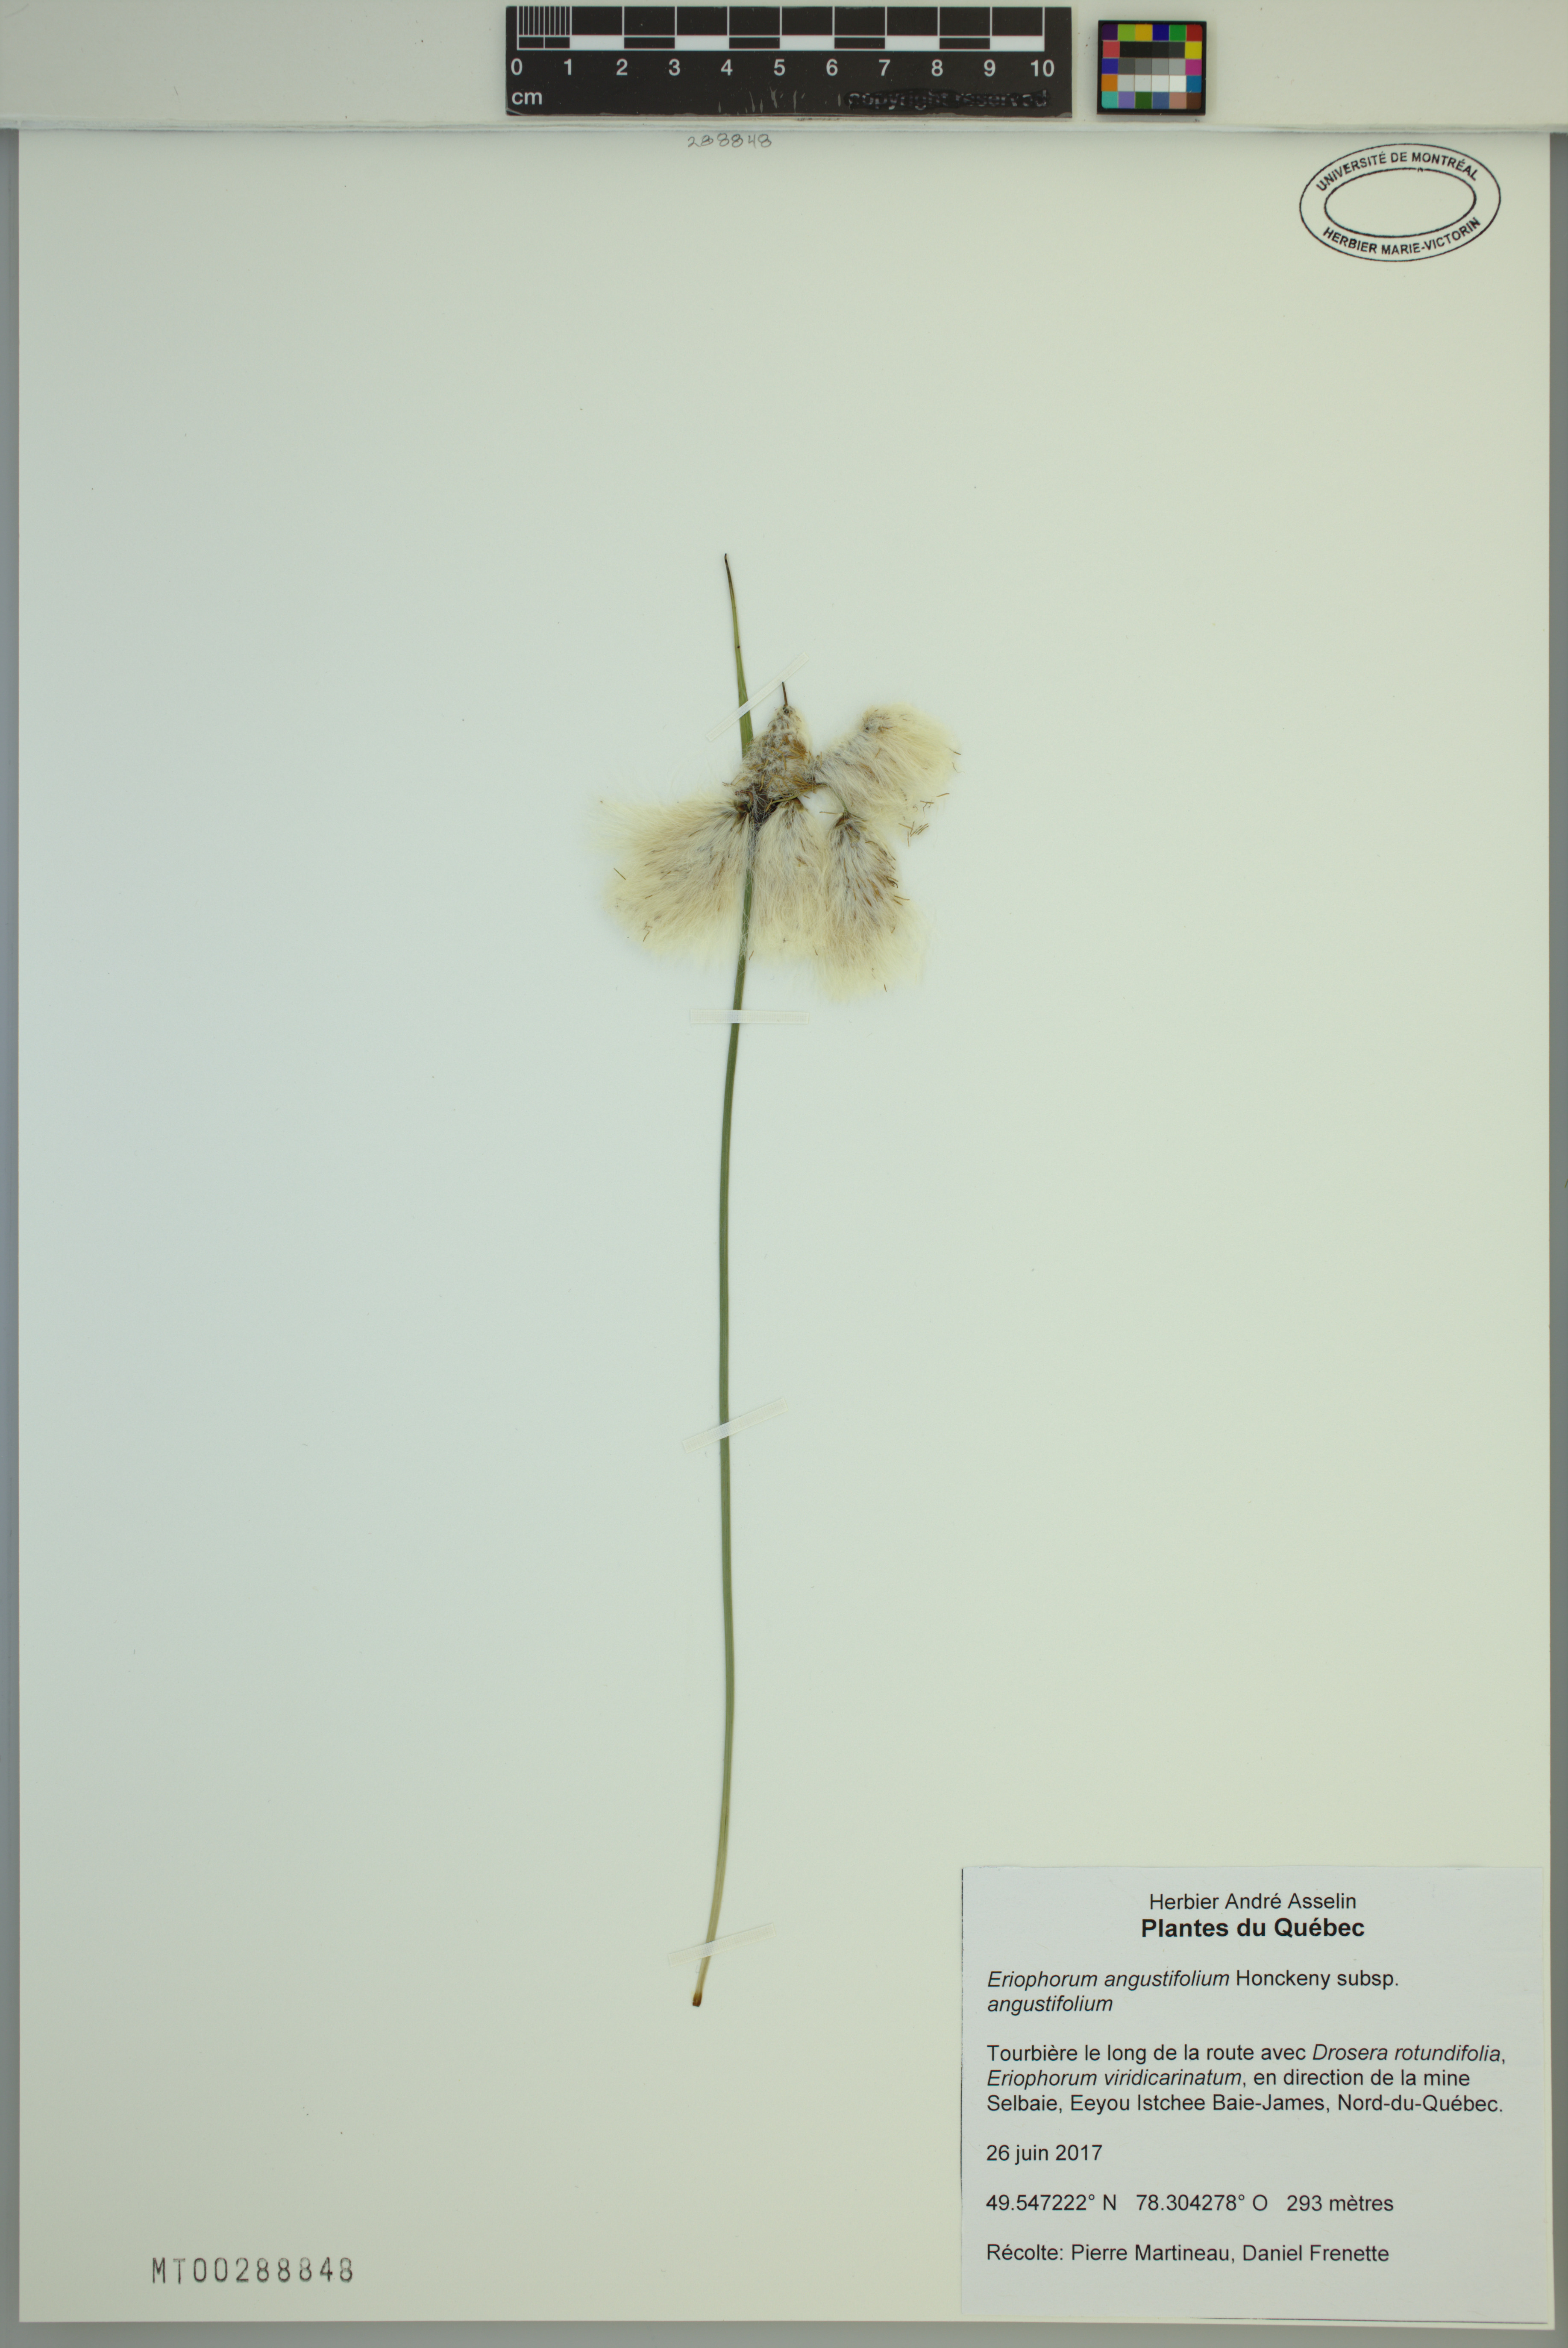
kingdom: Plantae
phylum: Tracheophyta
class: Liliopsida
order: Poales
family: Cyperaceae
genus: Eriophorum
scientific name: Eriophorum angustifolium
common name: Common cottongrass
